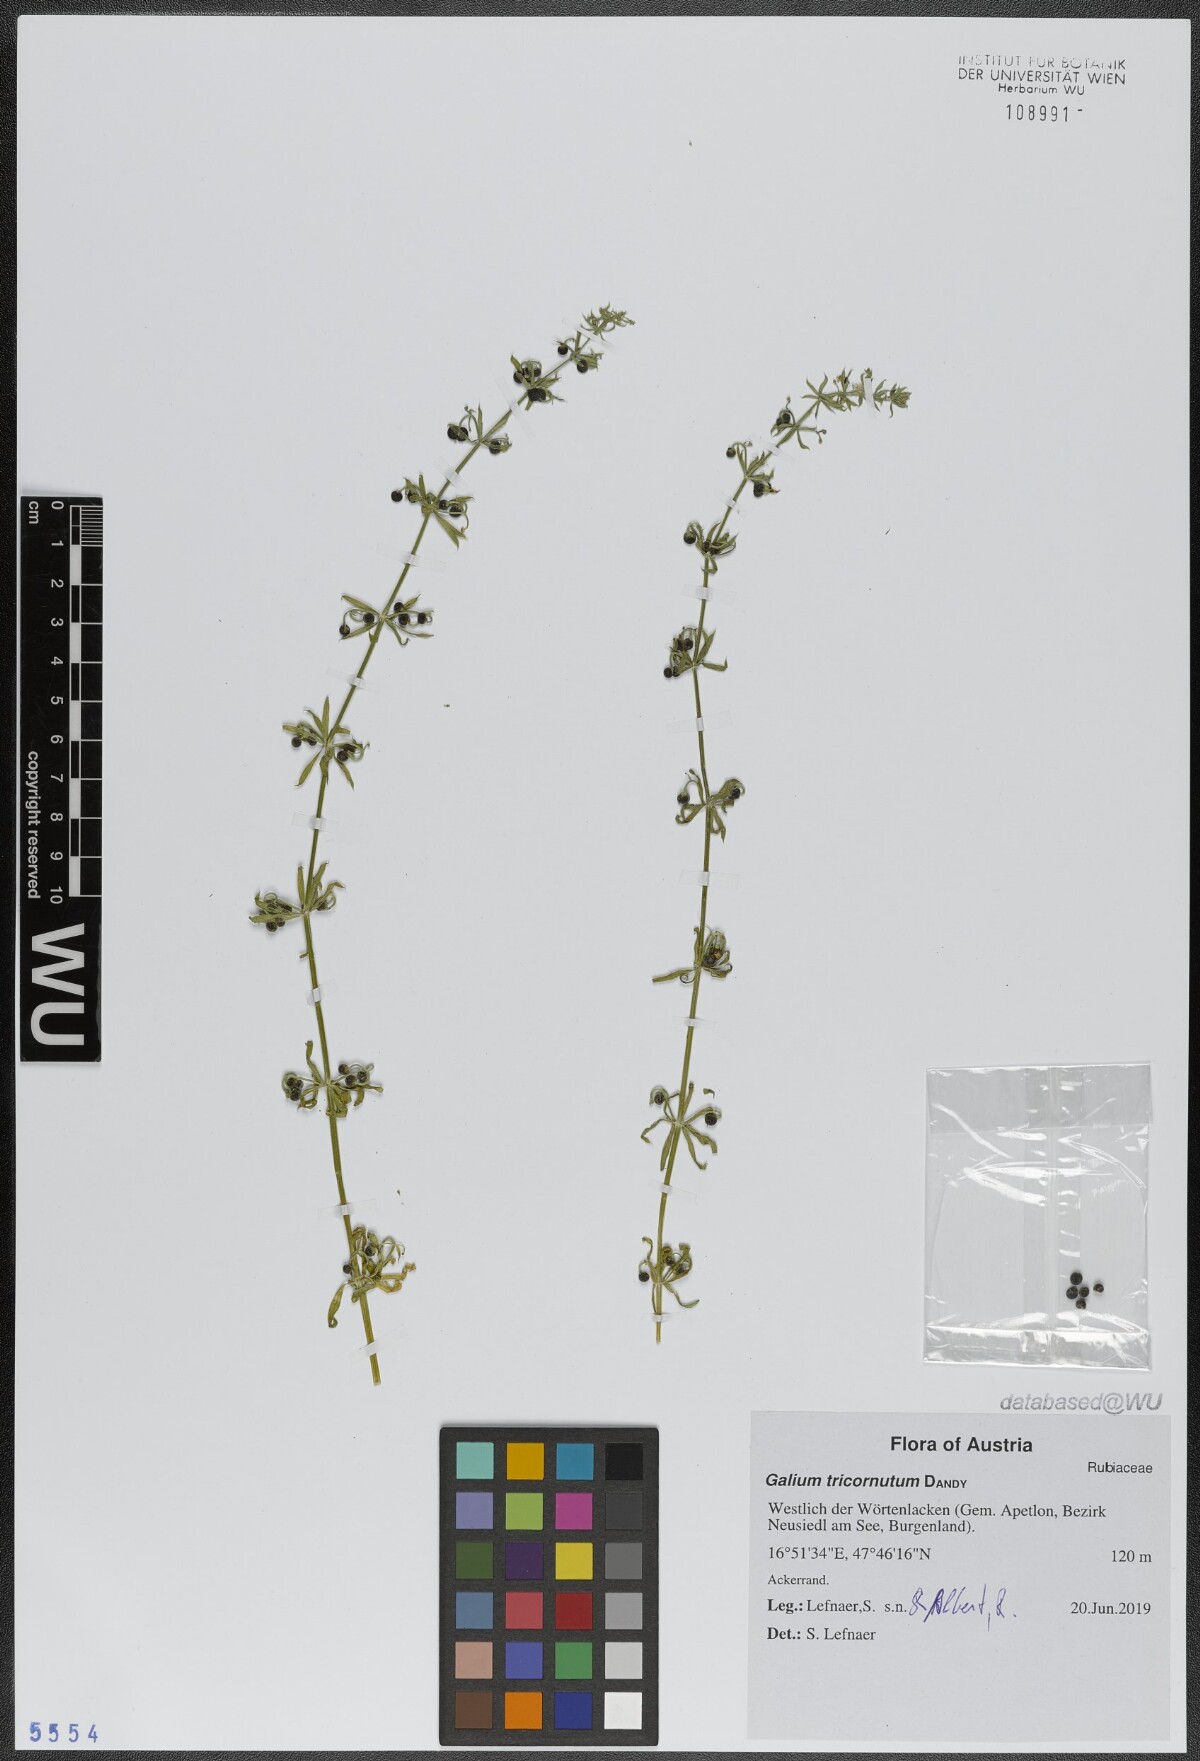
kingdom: Plantae
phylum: Tracheophyta
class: Magnoliopsida
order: Gentianales
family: Rubiaceae
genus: Galium
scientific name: Galium tricornutum
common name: Corn cleavers
